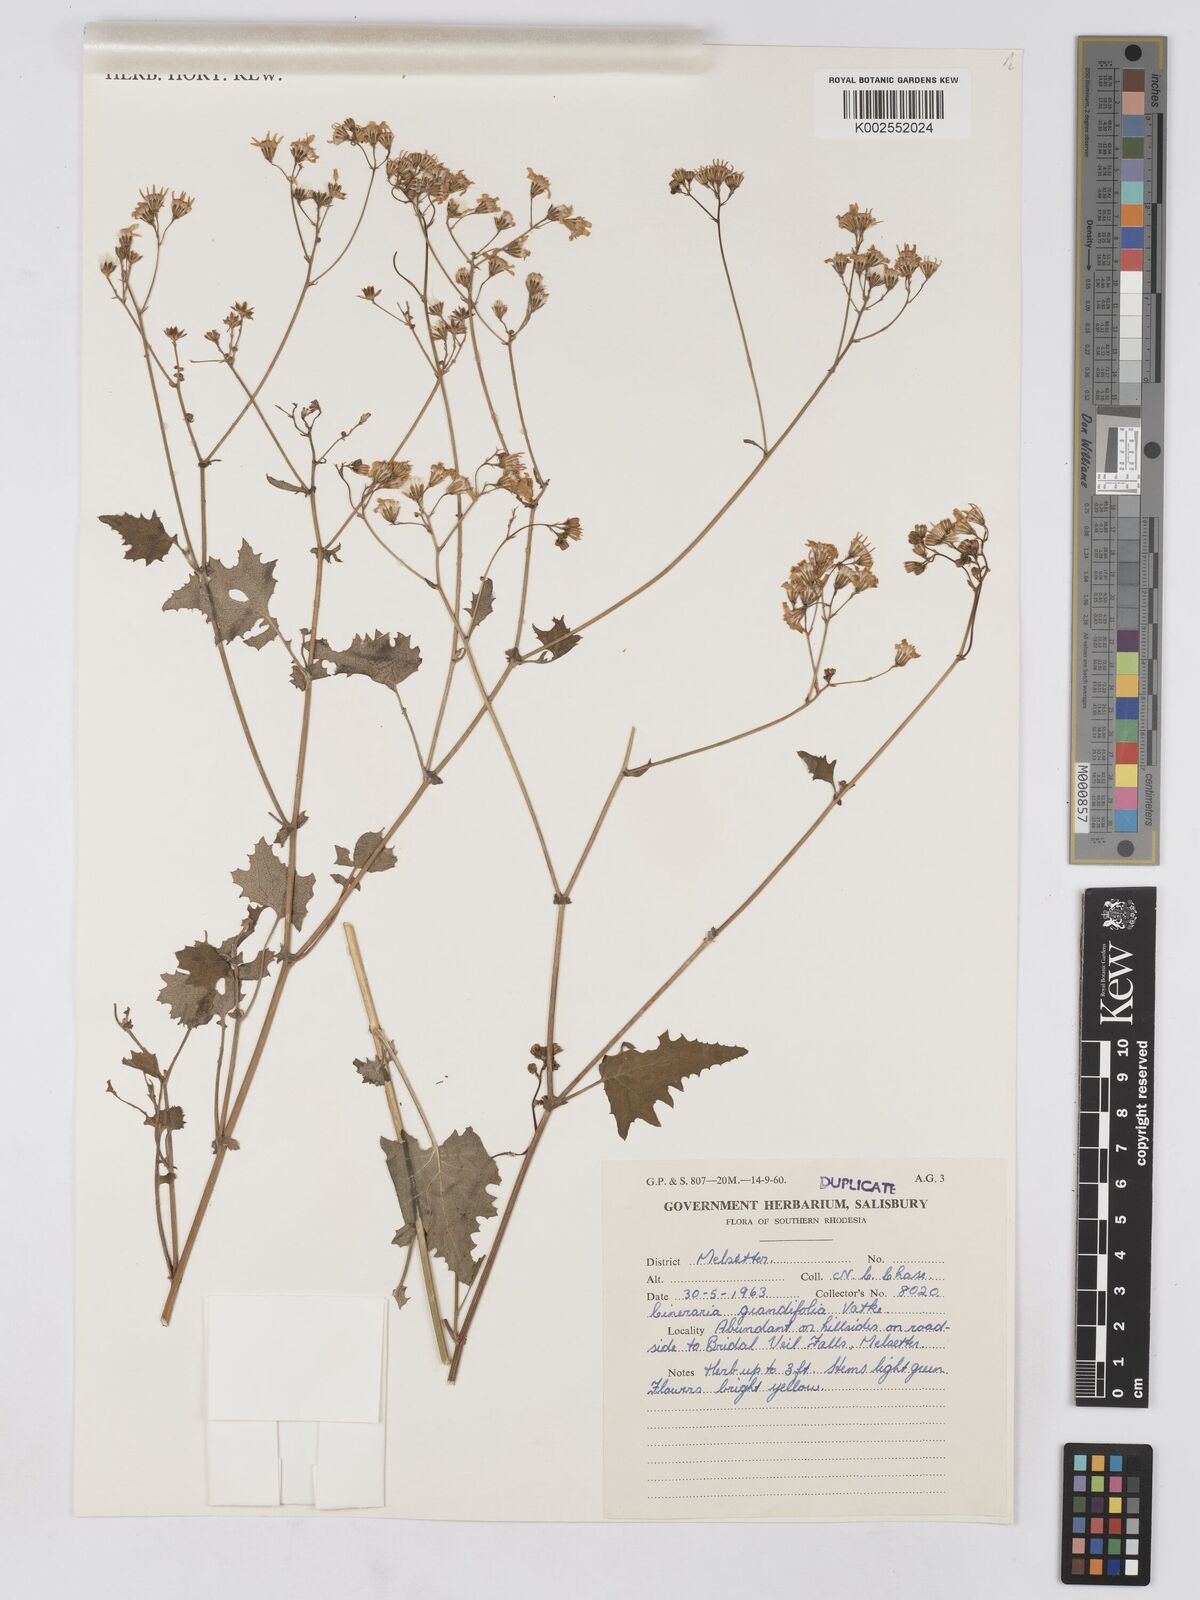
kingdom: Plantae
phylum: Tracheophyta
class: Magnoliopsida
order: Asterales
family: Asteraceae
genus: Cineraria
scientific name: Cineraria deltoidea
